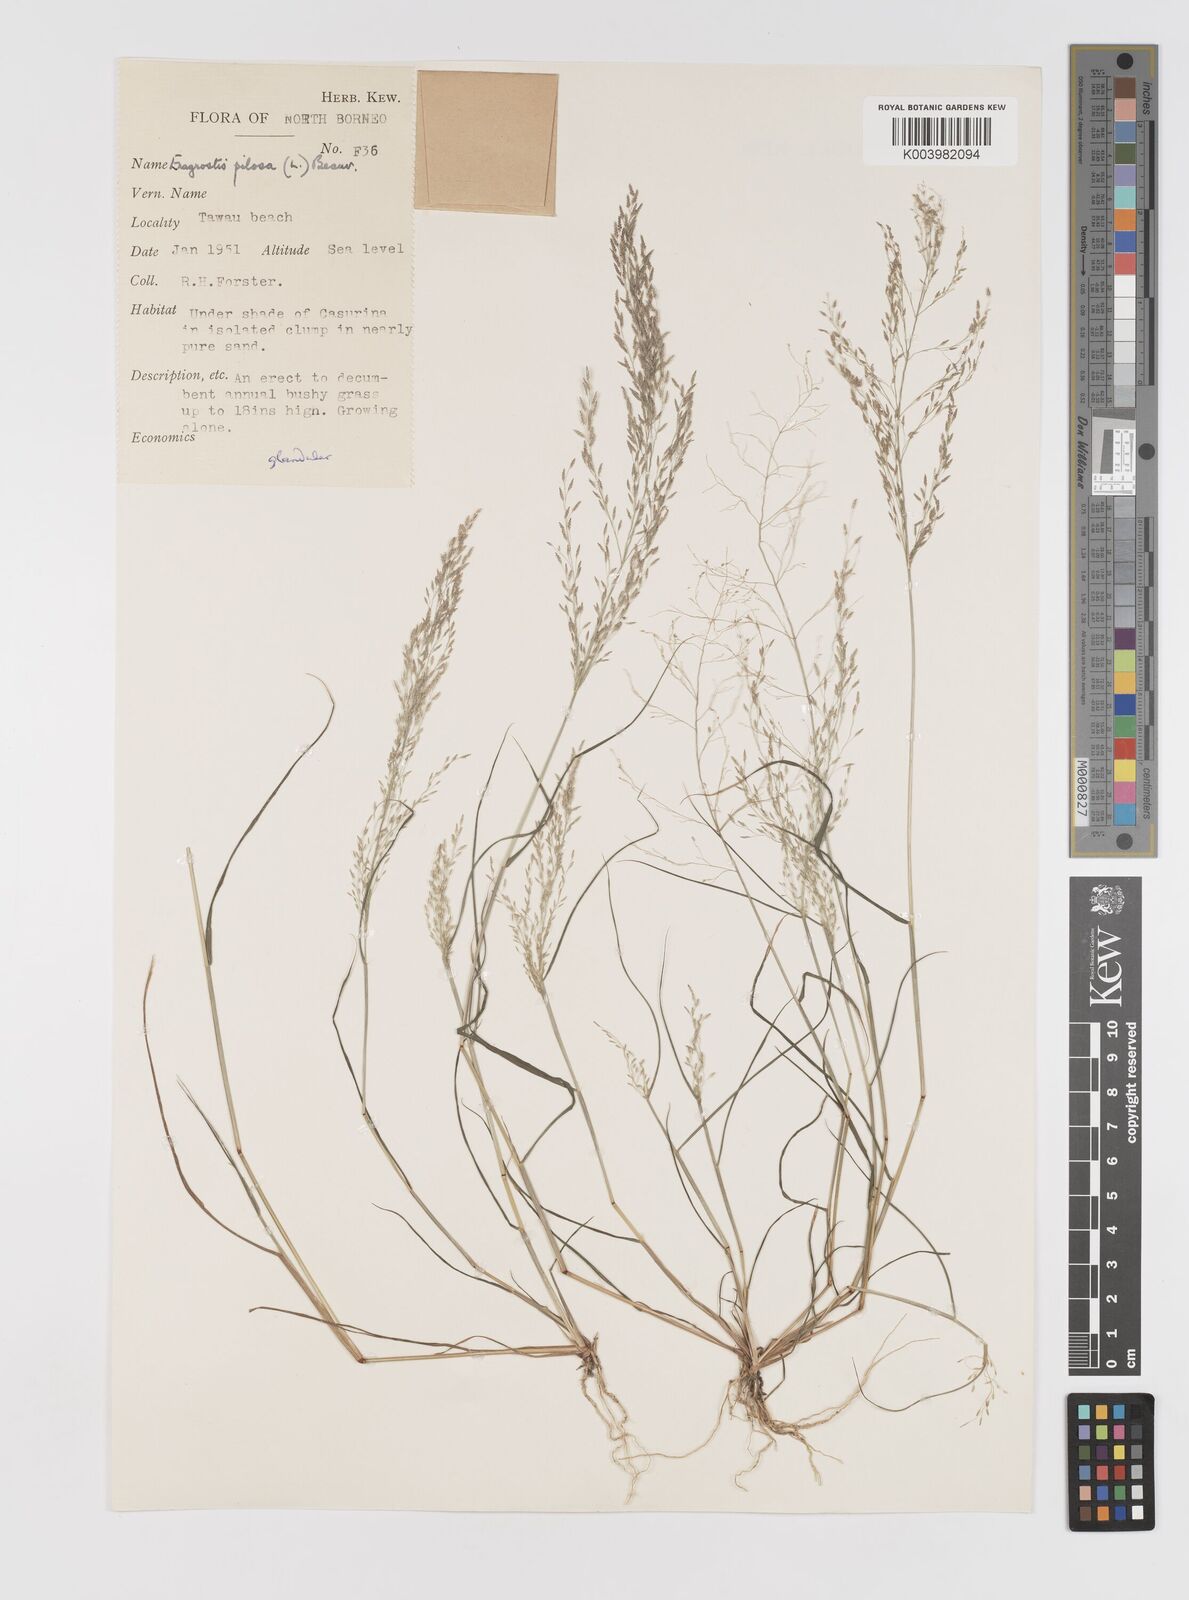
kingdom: Plantae
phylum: Tracheophyta
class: Liliopsida
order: Poales
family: Poaceae
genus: Eragrostis
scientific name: Eragrostis pilosa
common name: Indian lovegrass
